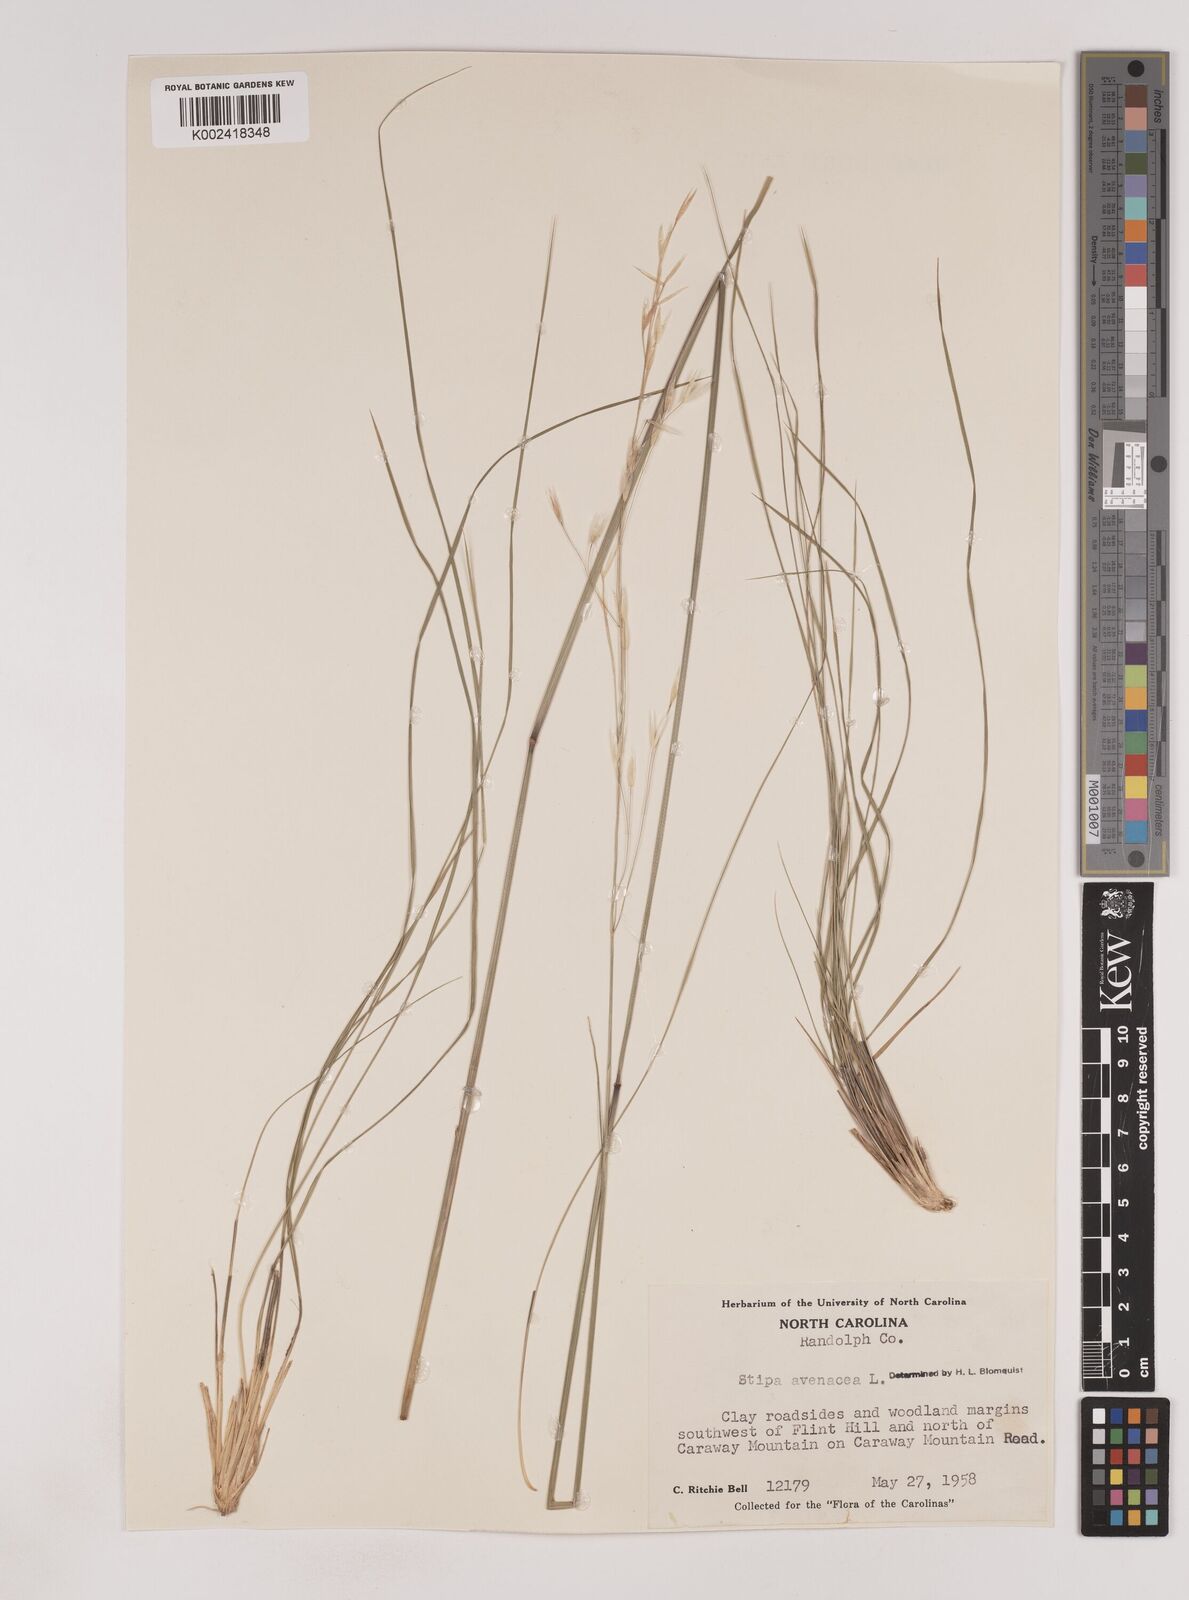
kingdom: Plantae
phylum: Tracheophyta
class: Liliopsida
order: Poales
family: Poaceae
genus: Piptochaetium
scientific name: Piptochaetium avenaceum
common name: Black bunchgrass
